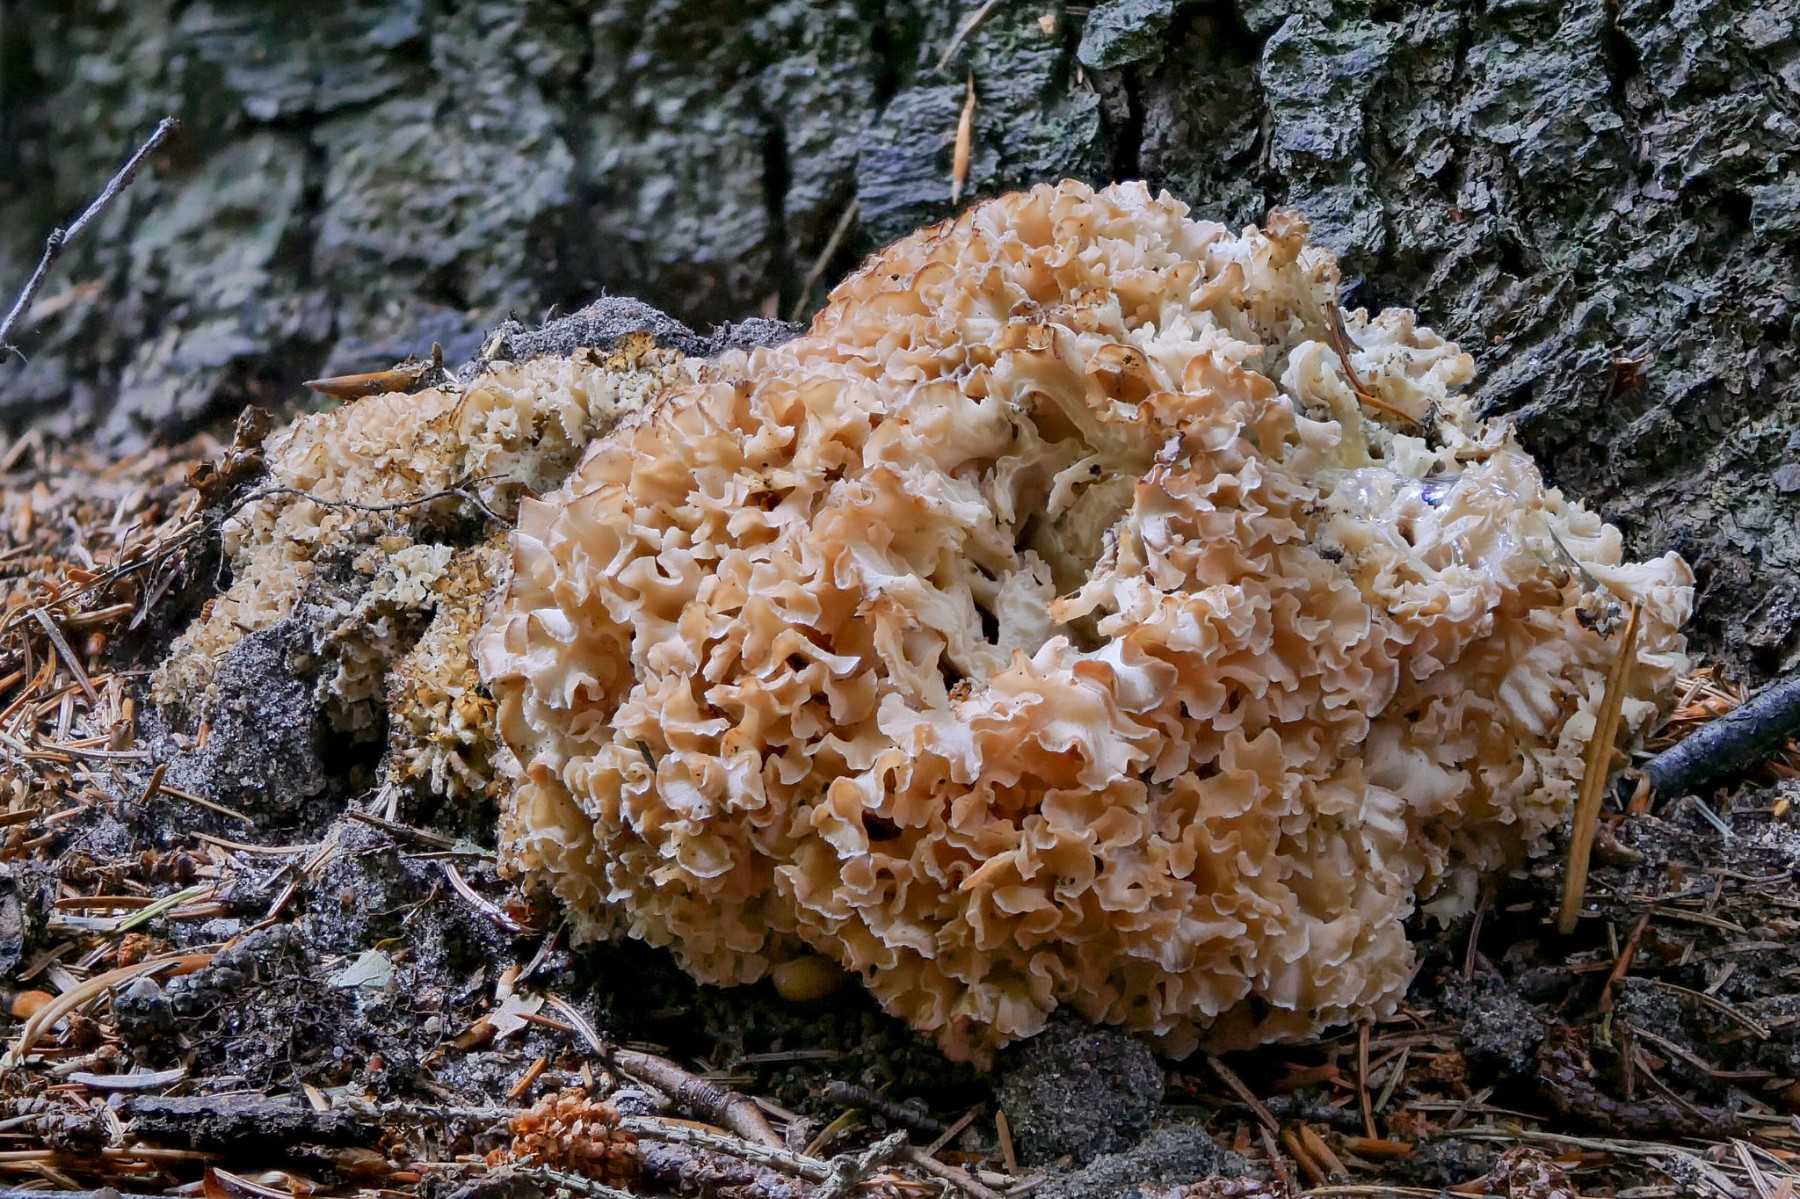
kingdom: Fungi
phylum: Basidiomycota
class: Agaricomycetes
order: Polyporales
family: Sparassidaceae
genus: Sparassis
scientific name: Sparassis crispa
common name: kruset blomkålssvamp
